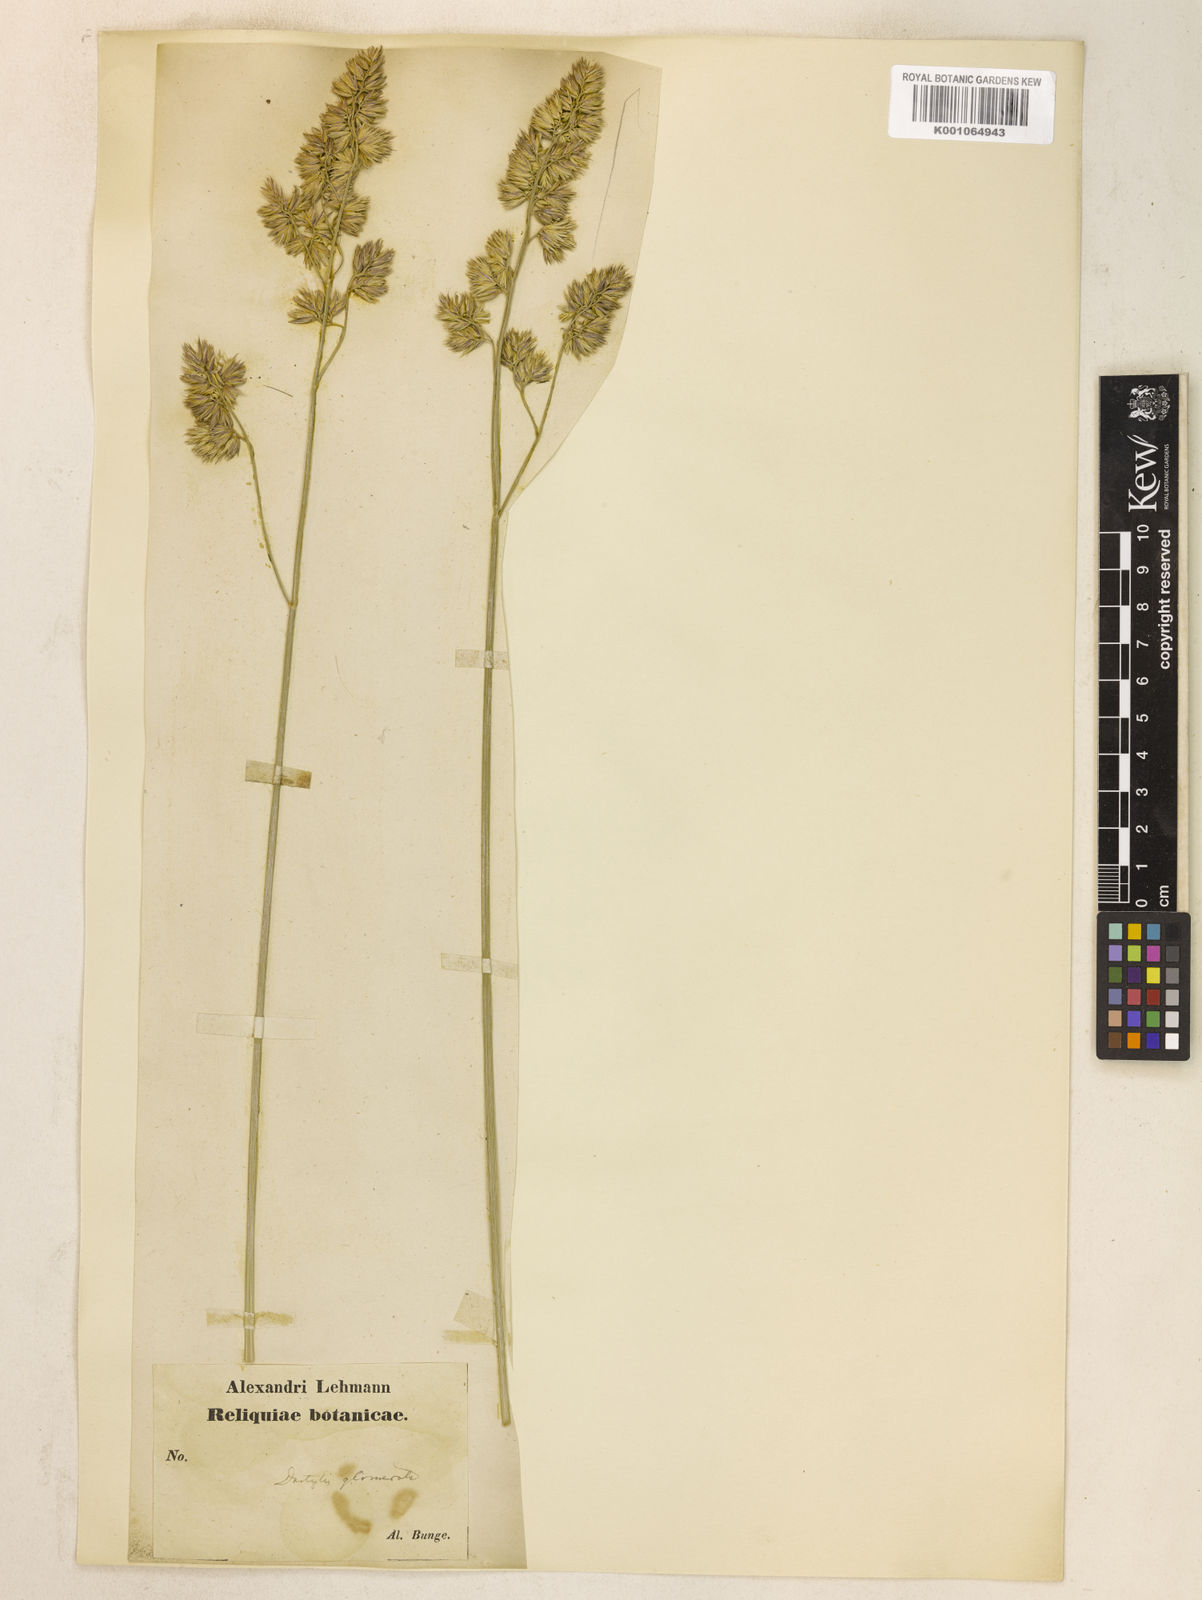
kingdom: Plantae
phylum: Tracheophyta
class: Liliopsida
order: Poales
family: Poaceae
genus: Dactylis
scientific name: Dactylis glomerata
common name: Orchardgrass
